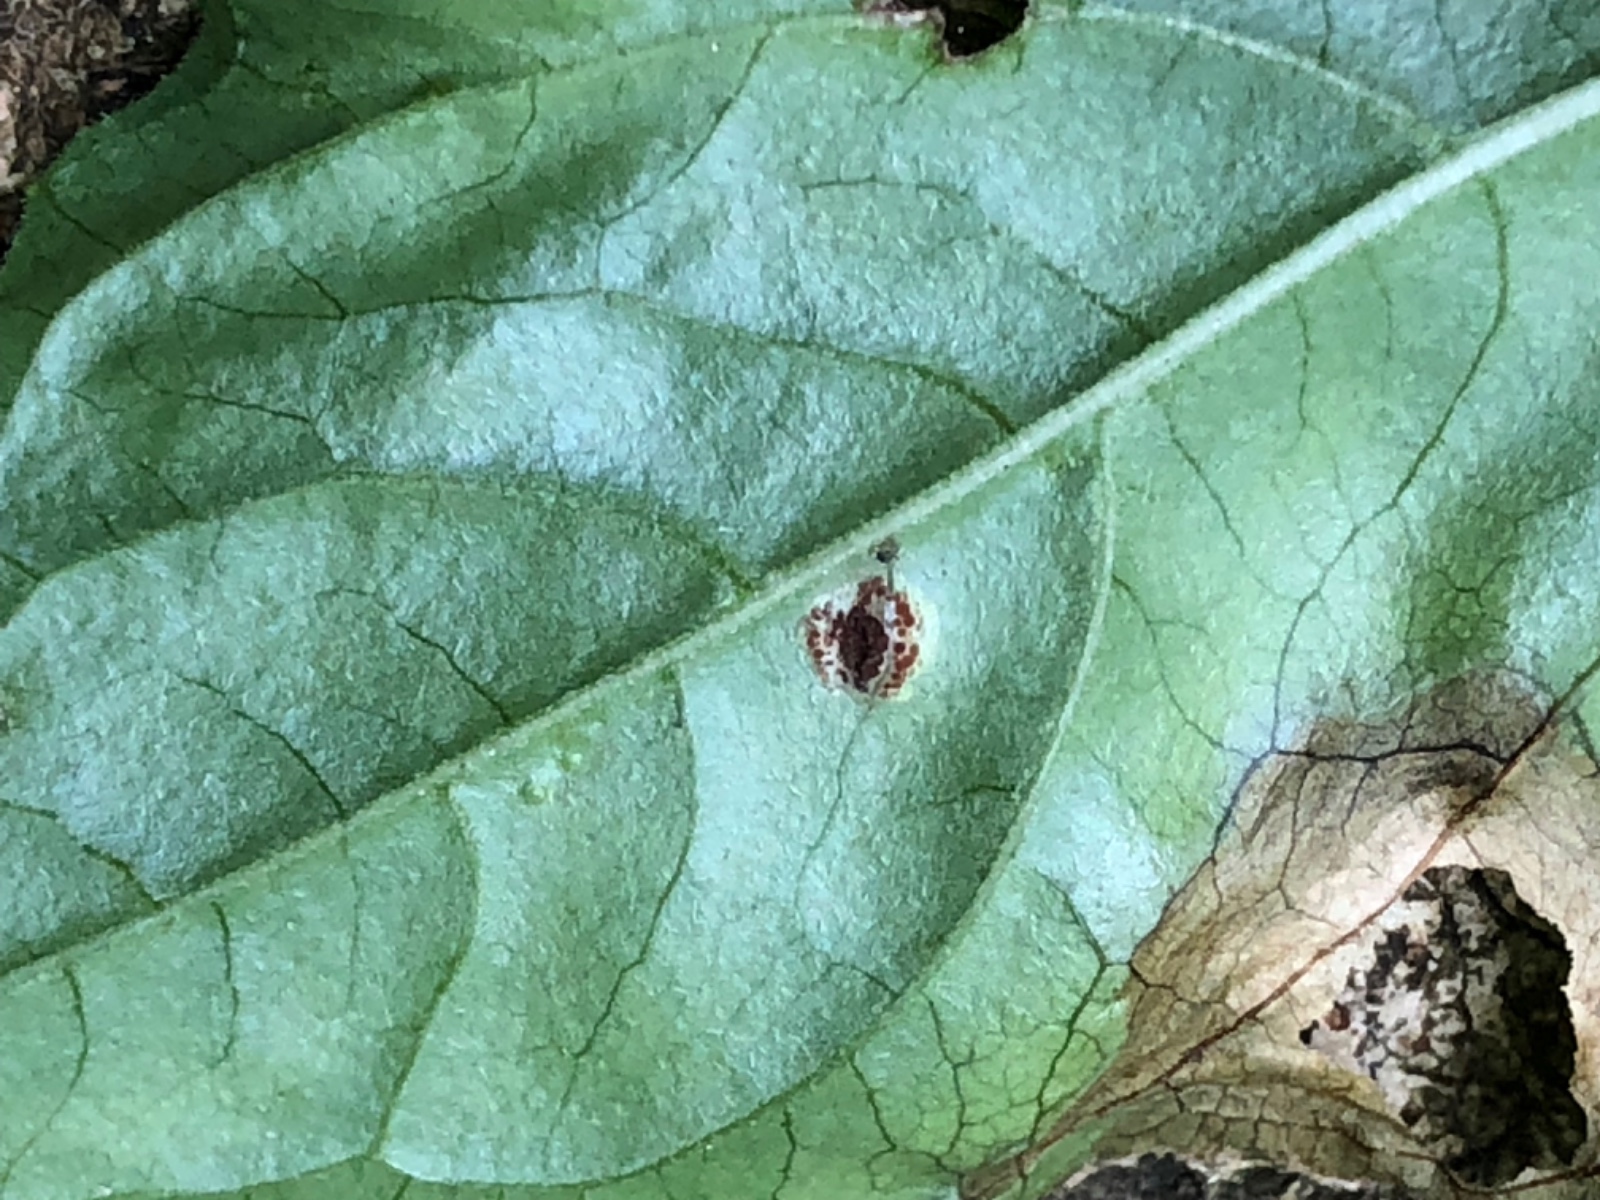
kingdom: Fungi
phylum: Basidiomycota
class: Pucciniomycetes
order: Pucciniales
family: Pucciniaceae
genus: Puccinia
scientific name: Puccinia circaeae
